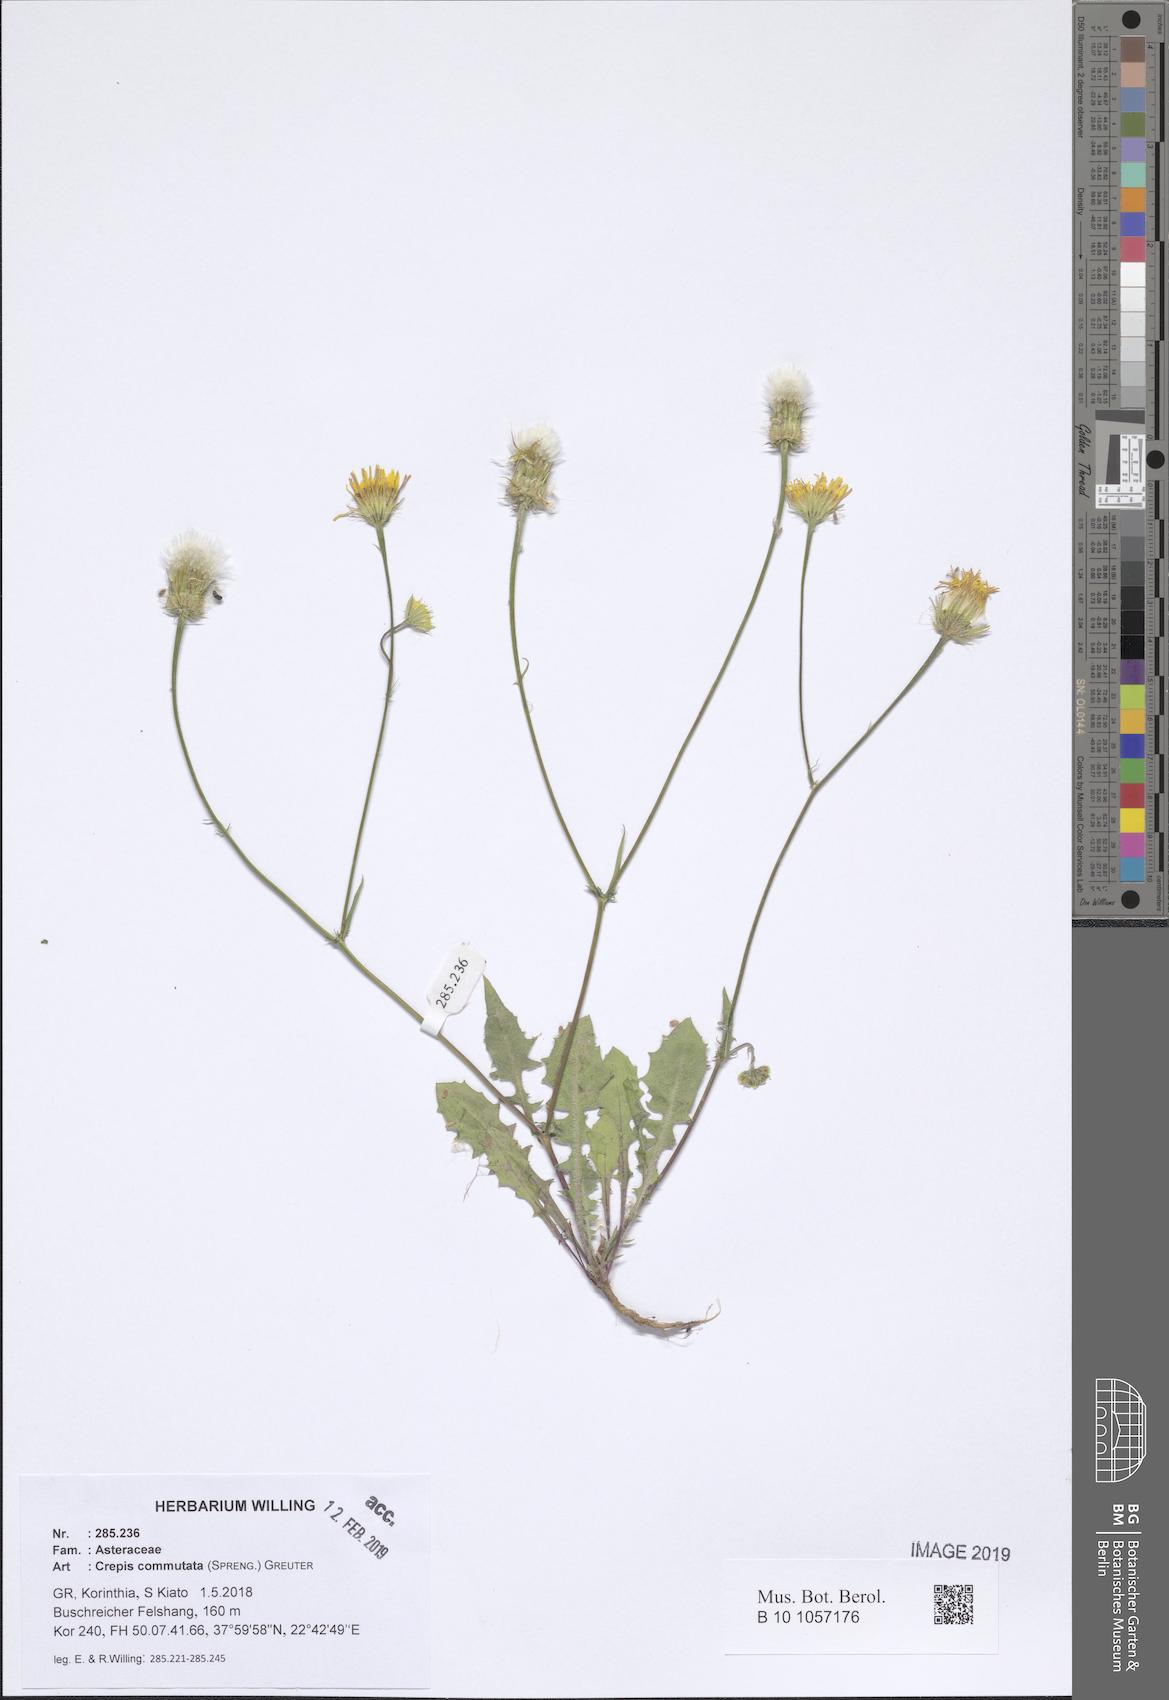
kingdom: Plantae
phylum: Tracheophyta
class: Magnoliopsida
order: Asterales
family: Asteraceae
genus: Crepis
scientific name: Crepis commutata
